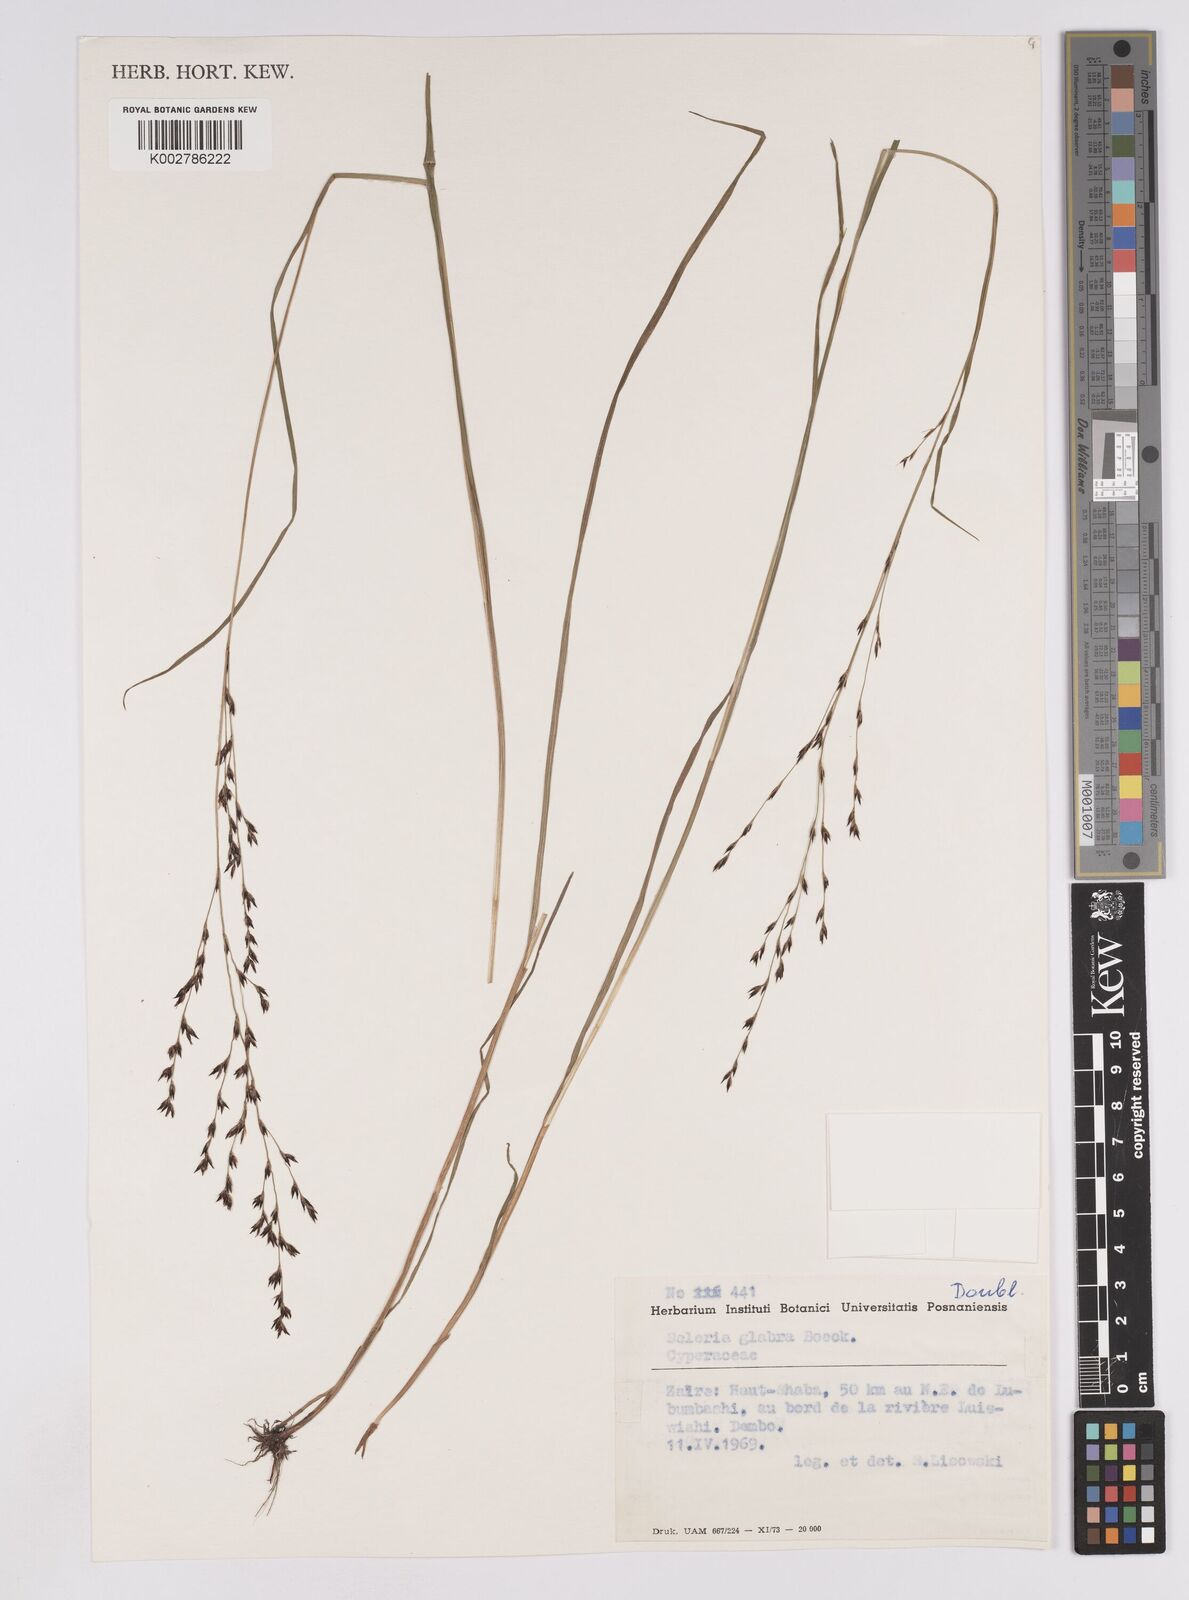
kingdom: Plantae
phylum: Tracheophyta
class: Liliopsida
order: Poales
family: Cyperaceae
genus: Scleria
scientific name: Scleria glabra
